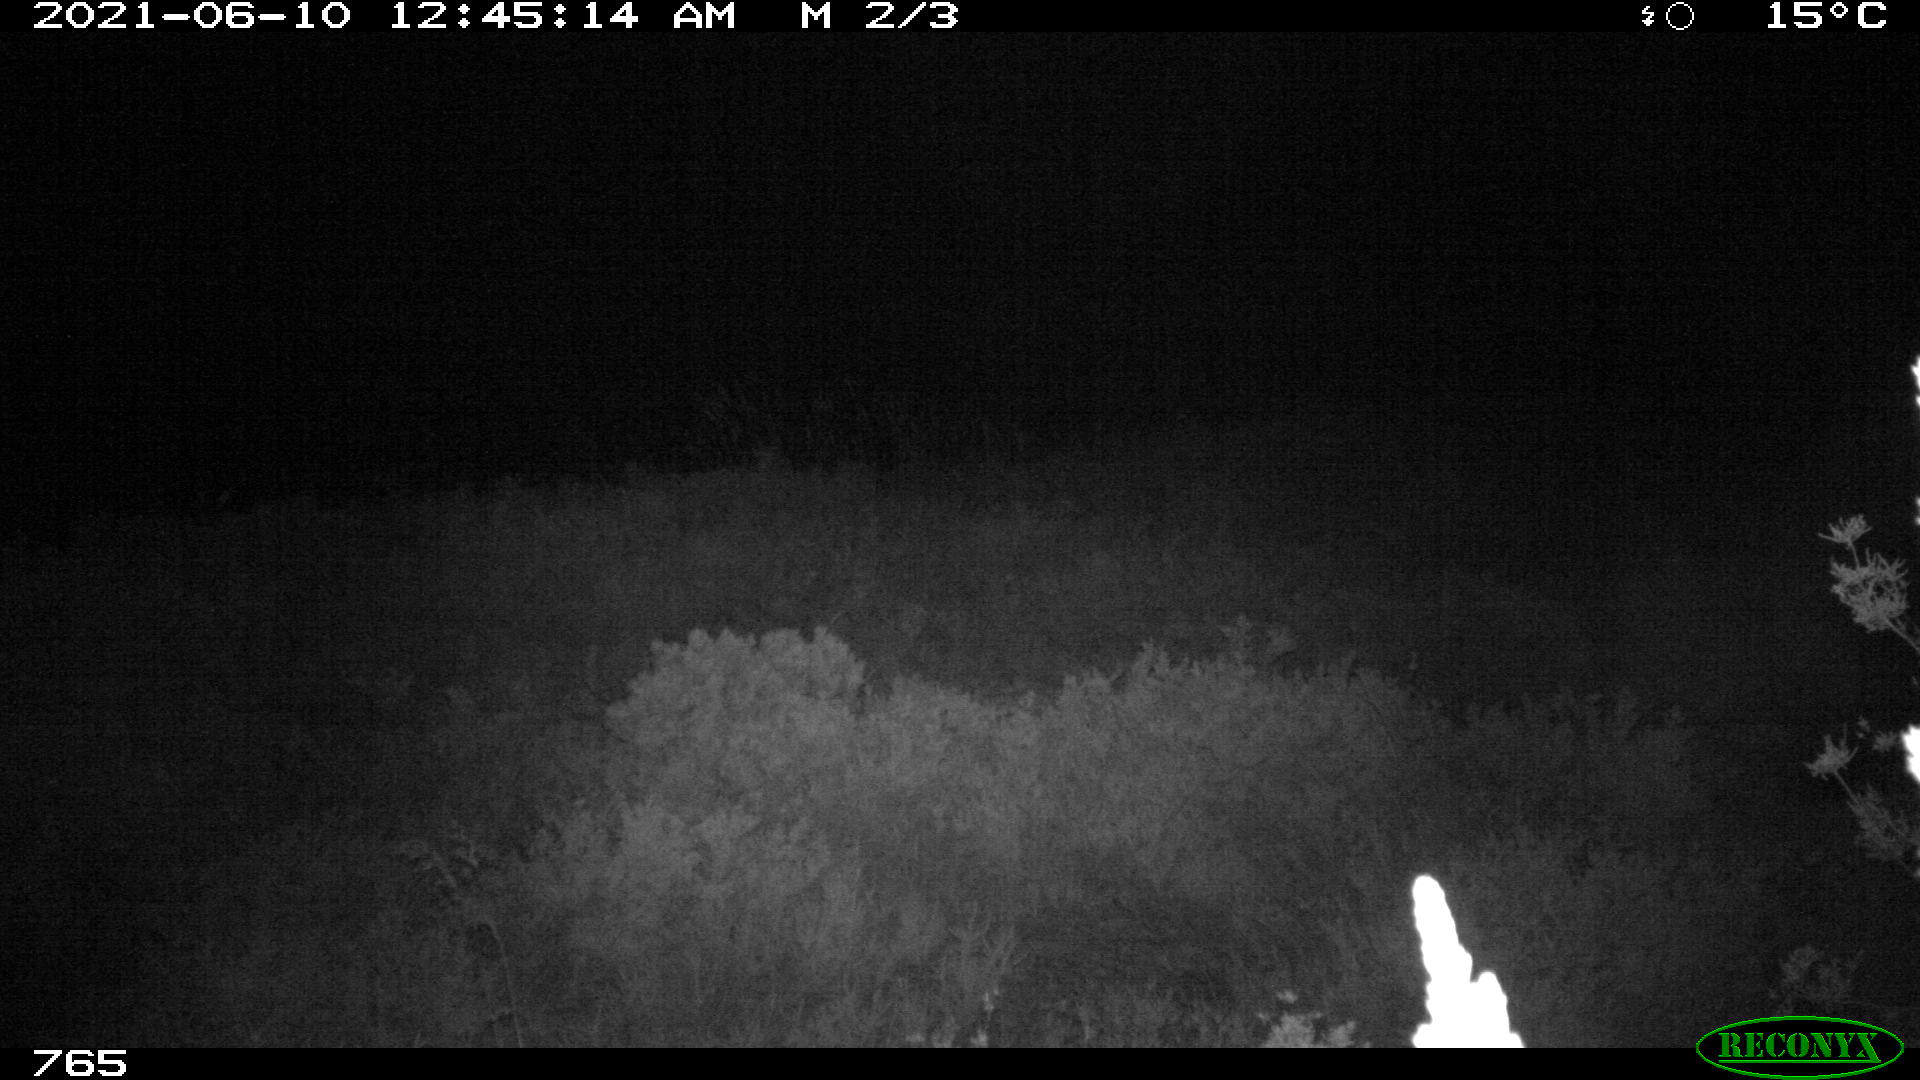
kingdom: Animalia
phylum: Chordata
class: Mammalia
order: Artiodactyla
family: Cervidae
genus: Capreolus
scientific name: Capreolus capreolus
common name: Western roe deer
